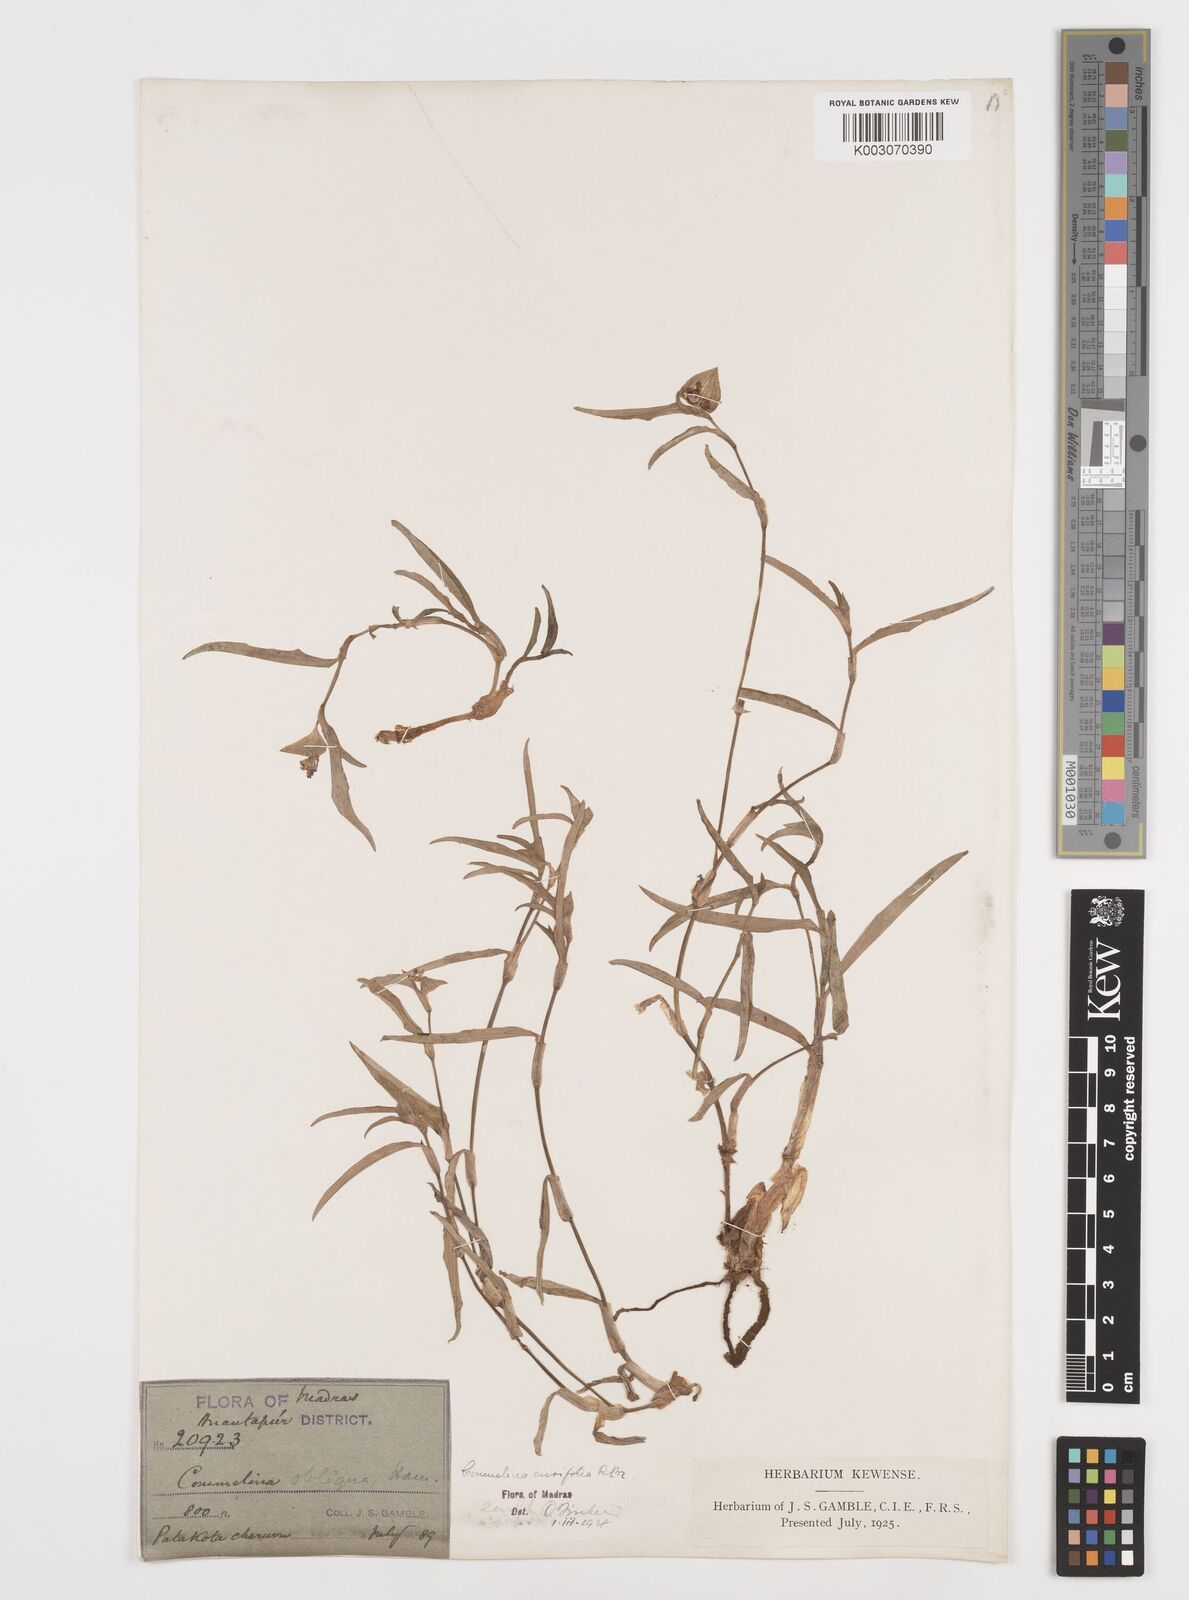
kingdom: Plantae
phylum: Tracheophyta
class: Liliopsida
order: Commelinales
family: Commelinaceae
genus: Commelina
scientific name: Commelina ensifolia
